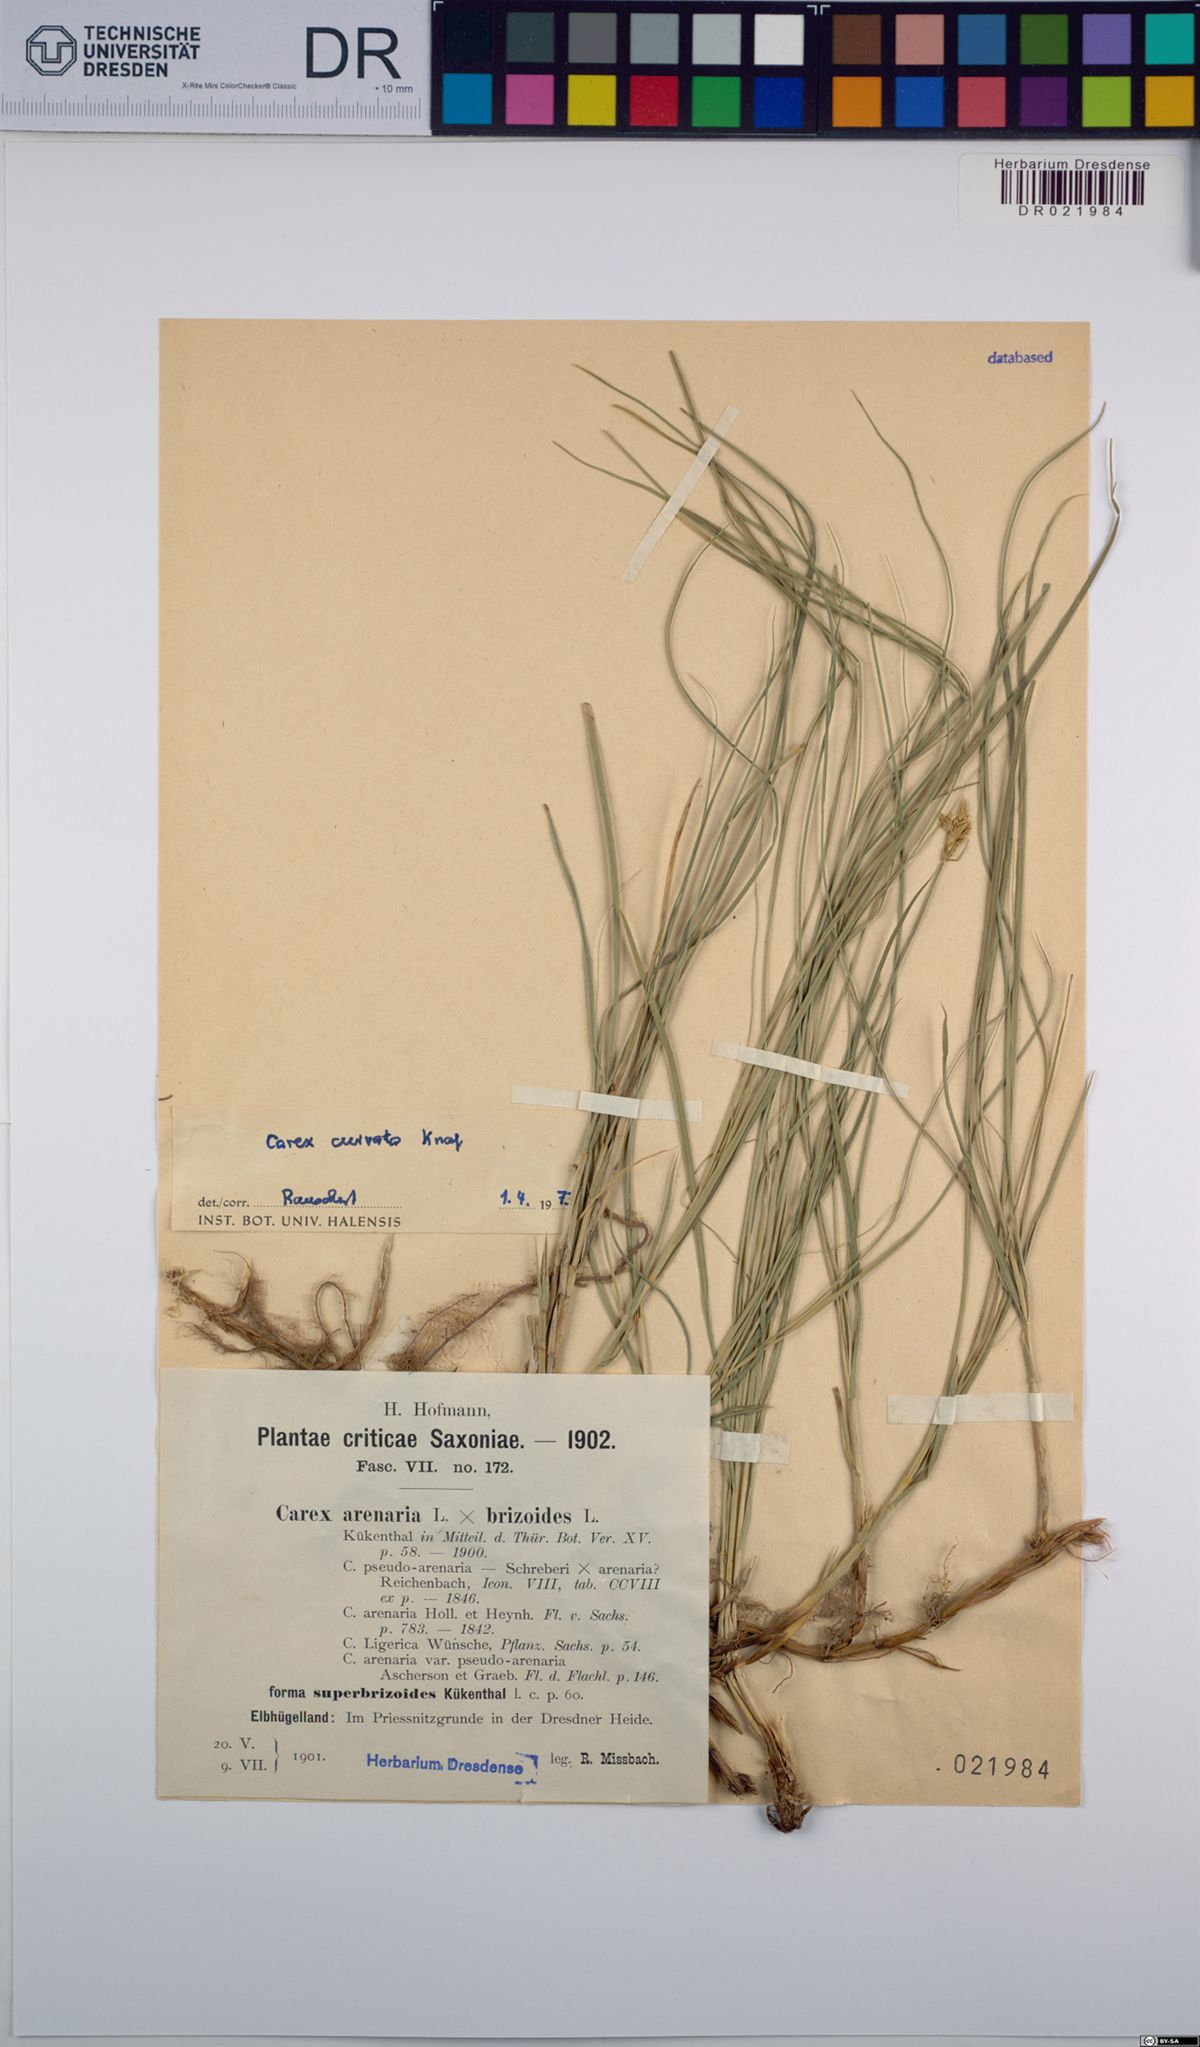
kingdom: Plantae
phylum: Tracheophyta
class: Liliopsida
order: Poales
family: Cyperaceae
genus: Carex
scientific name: Carex curvata
